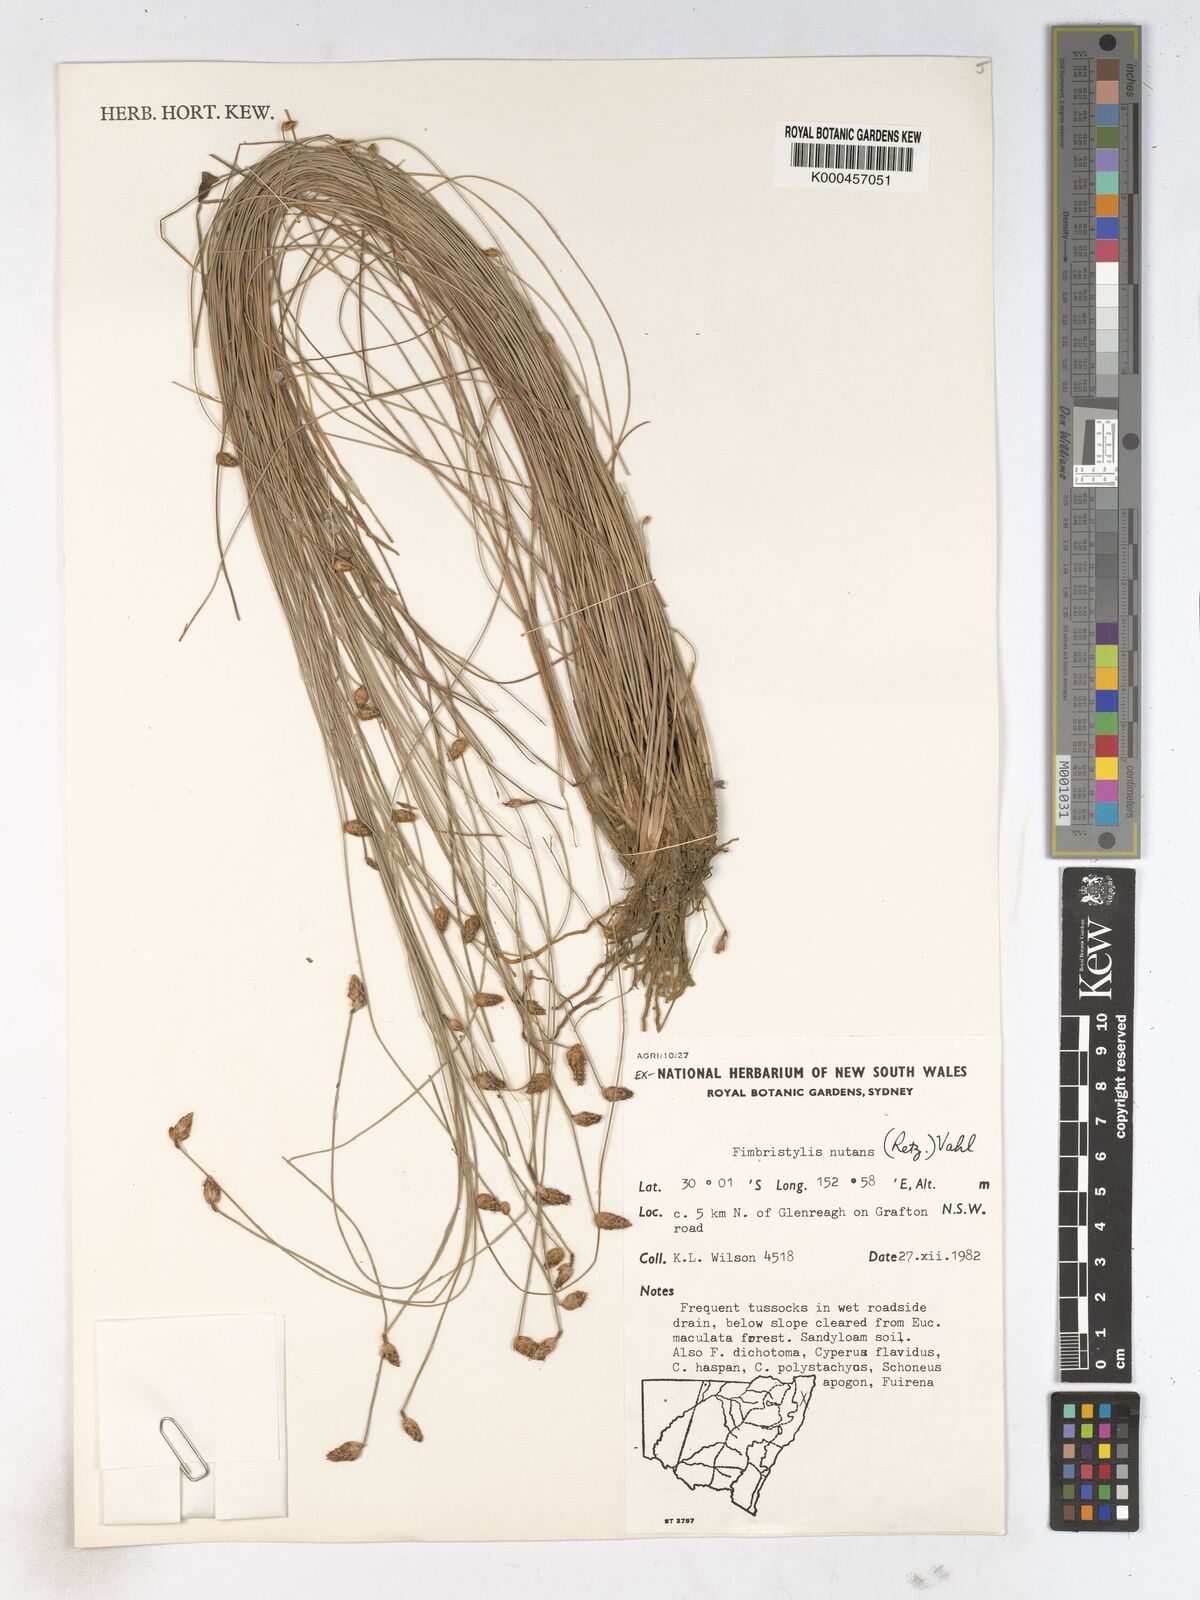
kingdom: Plantae
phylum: Tracheophyta
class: Liliopsida
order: Poales
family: Cyperaceae
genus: Fimbristylis
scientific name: Fimbristylis nutans
